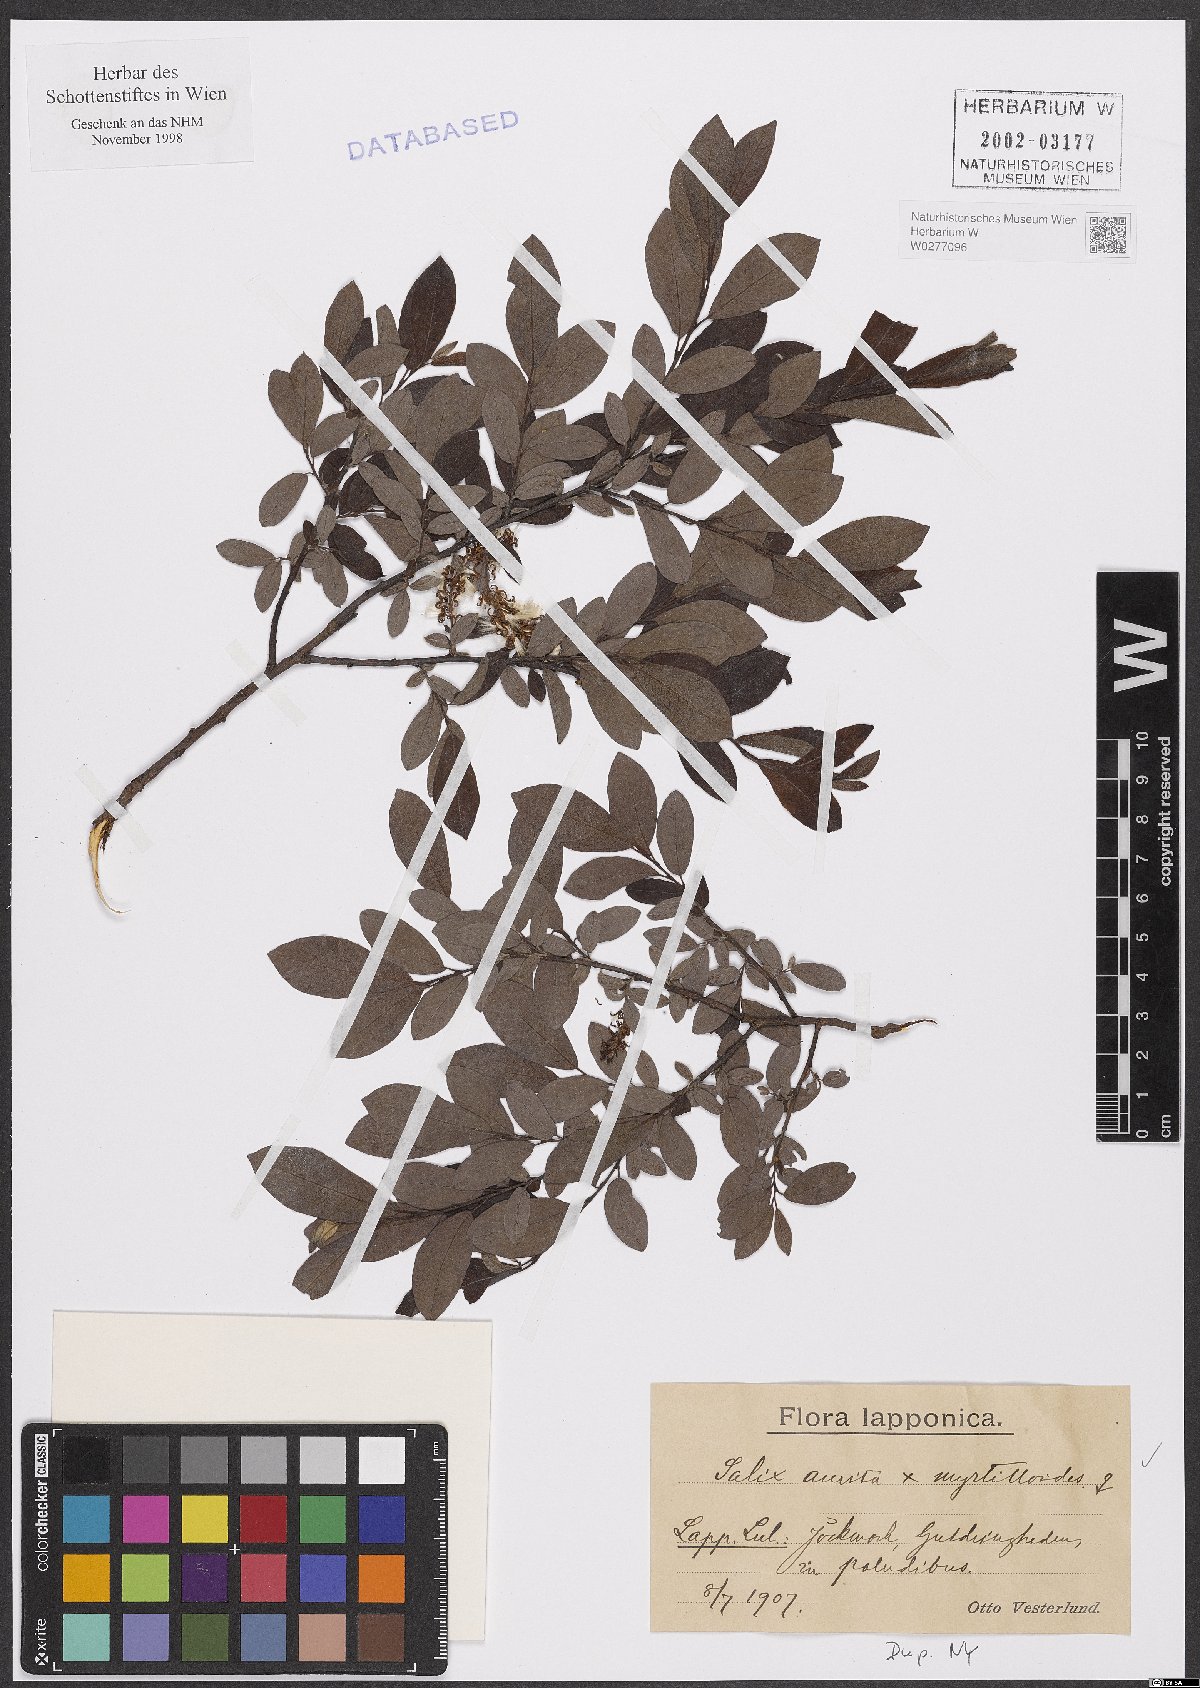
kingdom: Plantae
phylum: Tracheophyta
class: Magnoliopsida
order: Malpighiales
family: Salicaceae
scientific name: Salicaceae
